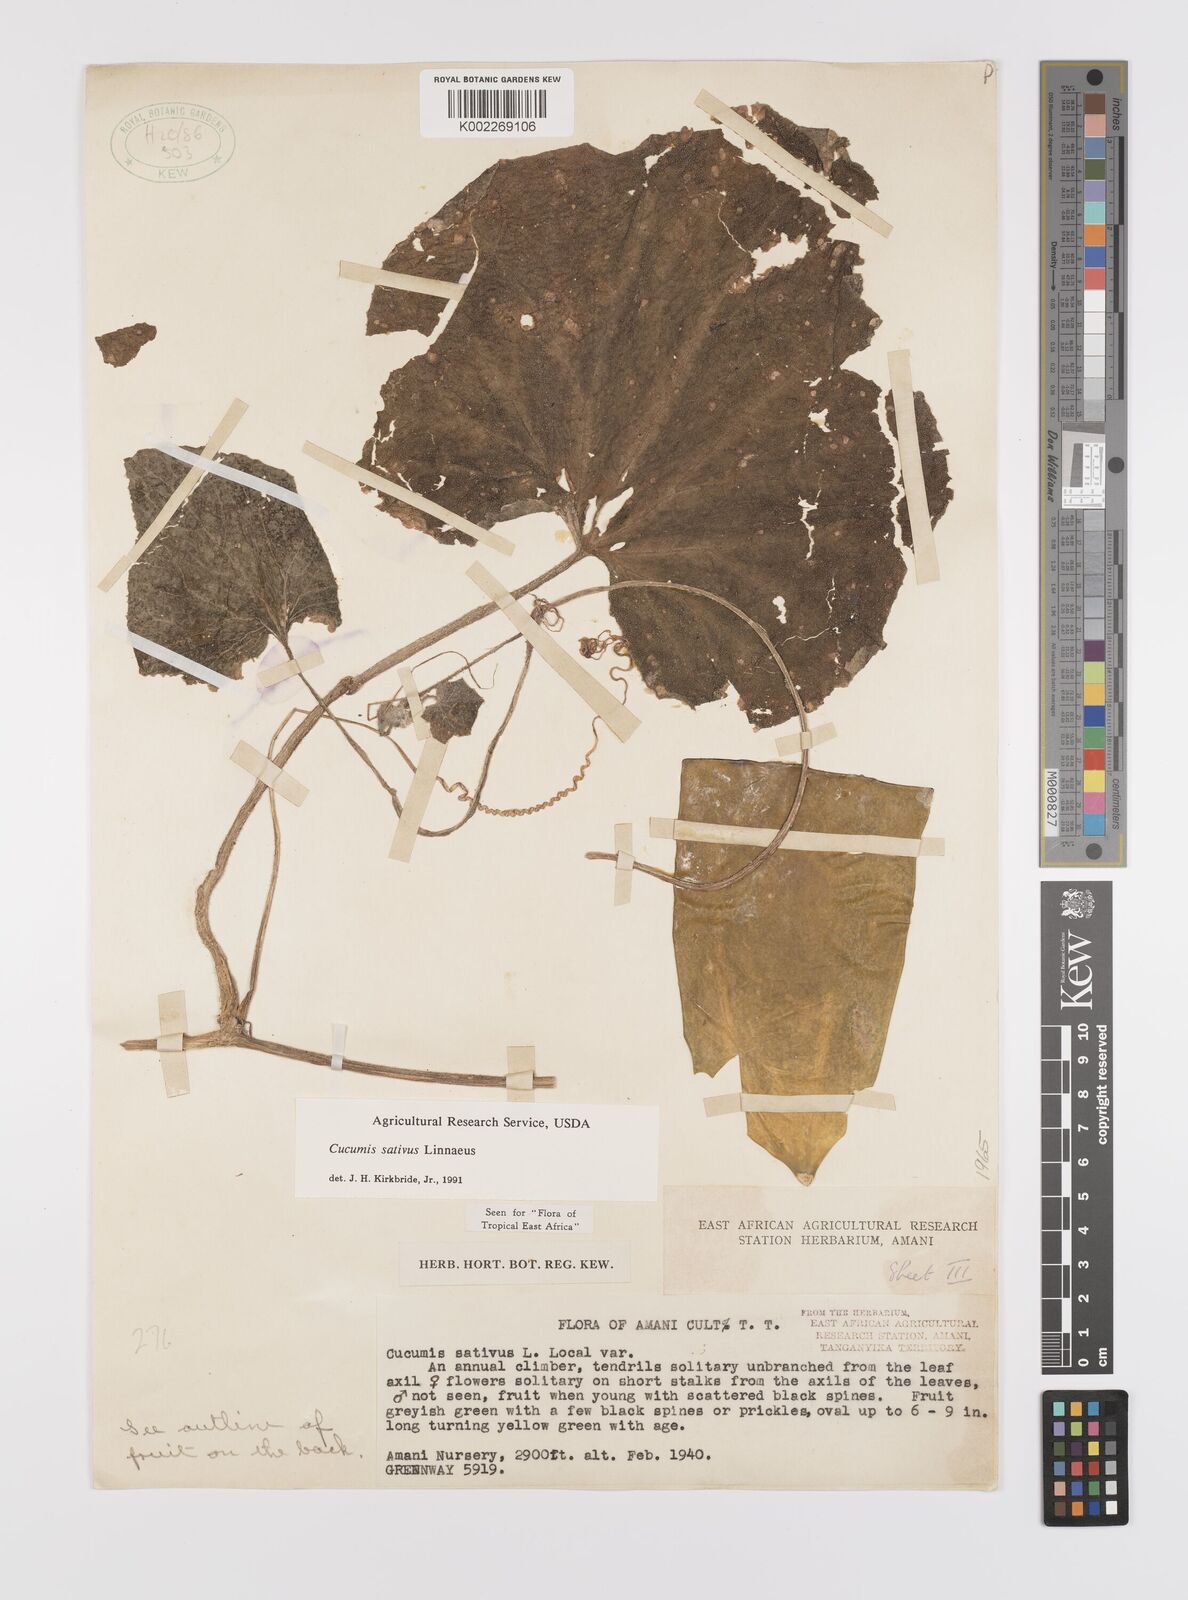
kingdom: Plantae
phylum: Tracheophyta
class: Magnoliopsida
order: Cucurbitales
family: Cucurbitaceae
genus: Cucumis
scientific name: Cucumis sativus
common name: Cucumber
